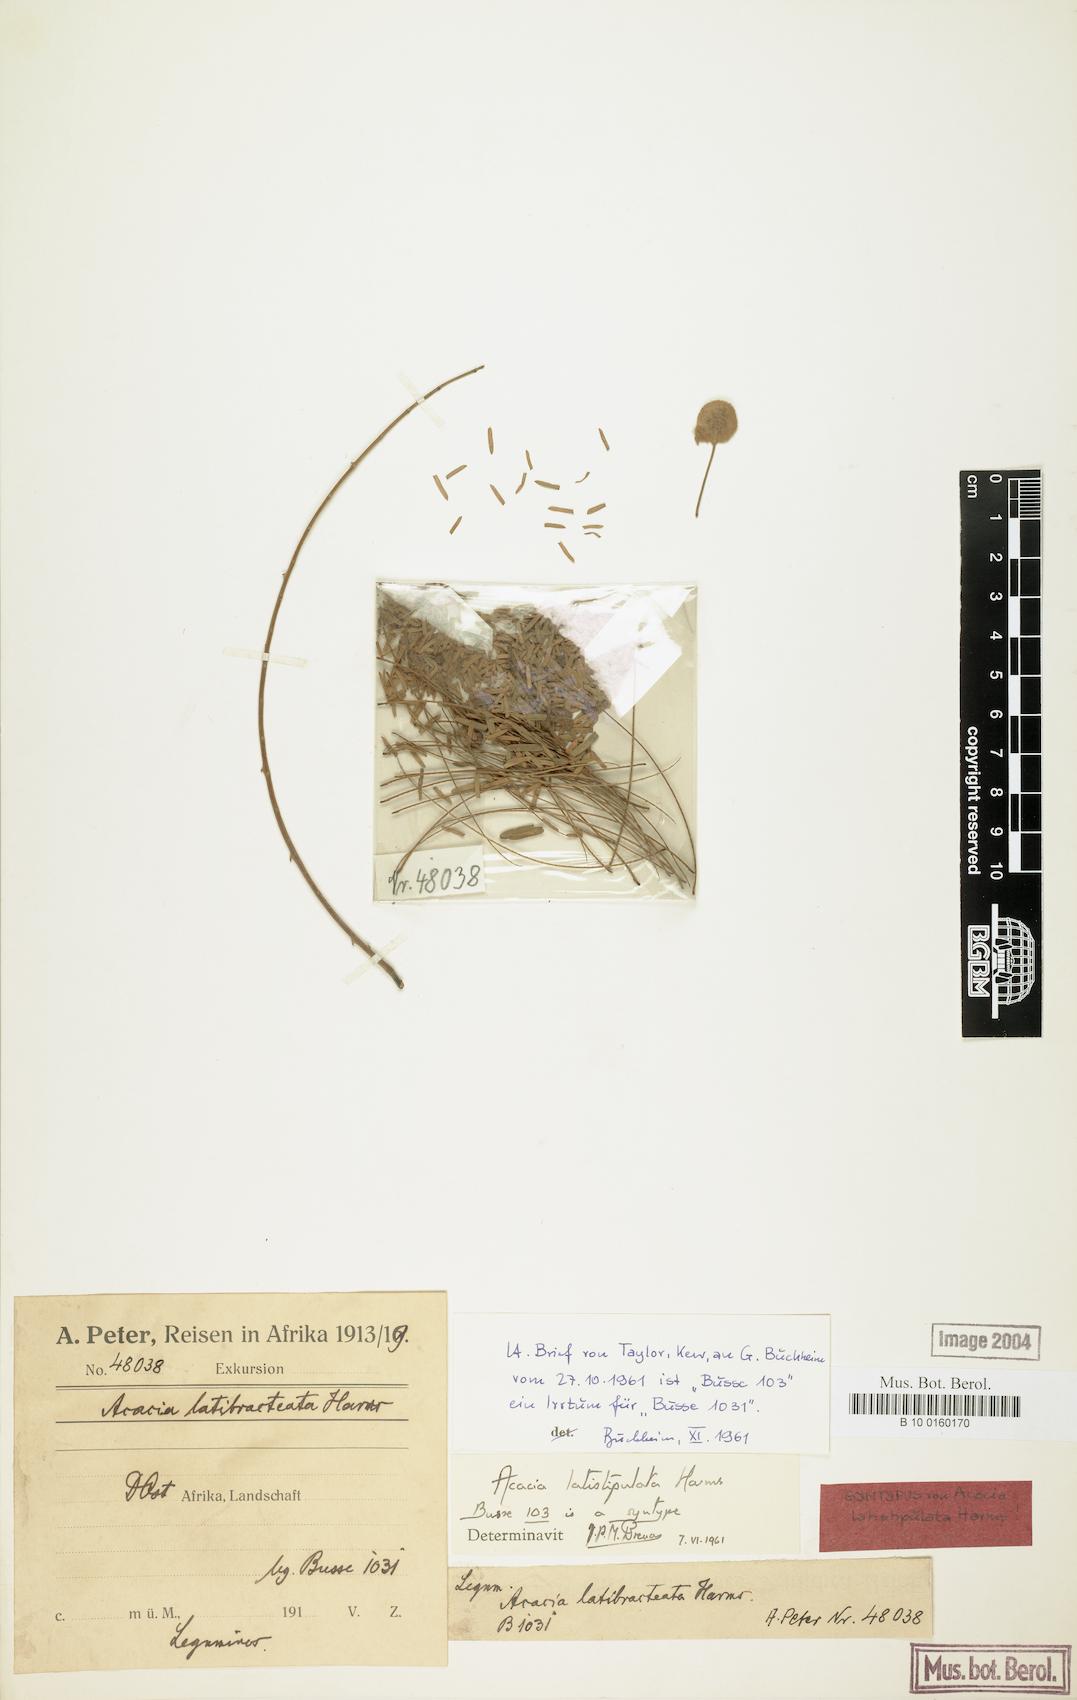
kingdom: Plantae
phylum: Tracheophyta
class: Magnoliopsida
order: Fabales
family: Fabaceae
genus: Senegalia
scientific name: Senegalia latistipulata
